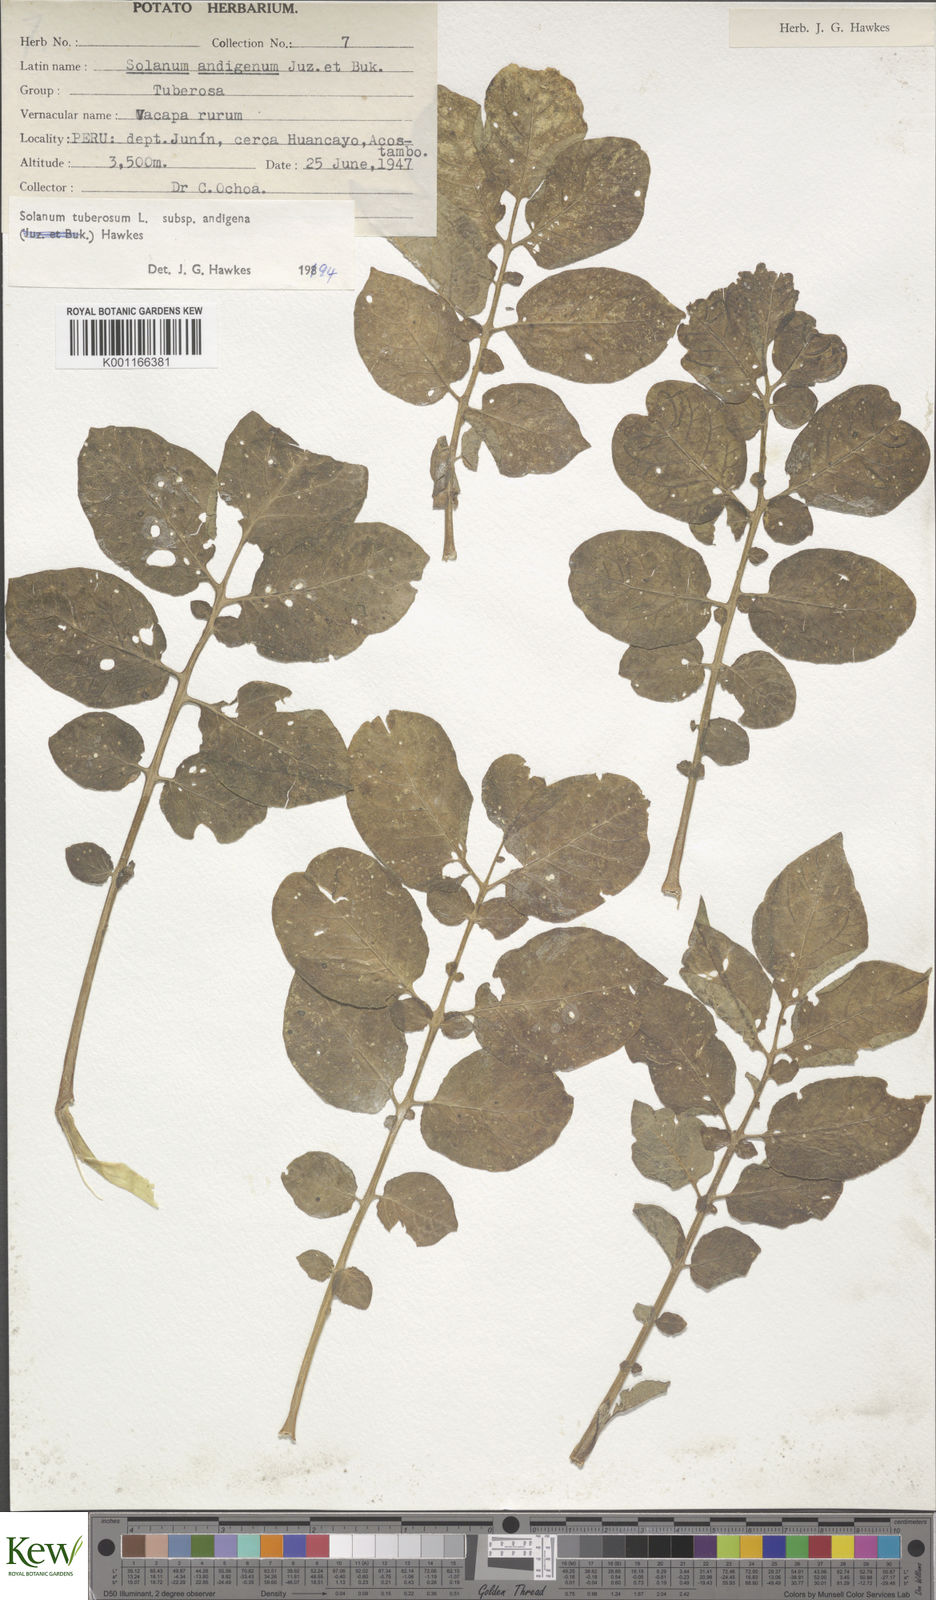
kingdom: Plantae
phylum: Tracheophyta
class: Magnoliopsida
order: Solanales
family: Solanaceae
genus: Solanum
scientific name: Solanum tuberosum
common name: Potato
